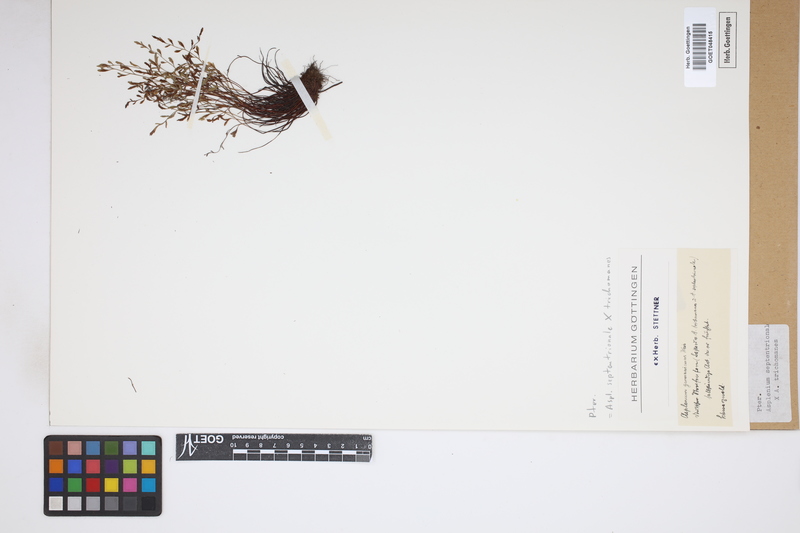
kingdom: Plantae
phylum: Tracheophyta
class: Polypodiopsida
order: Polypodiales
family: Aspleniaceae
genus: Asplenium
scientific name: Asplenium
